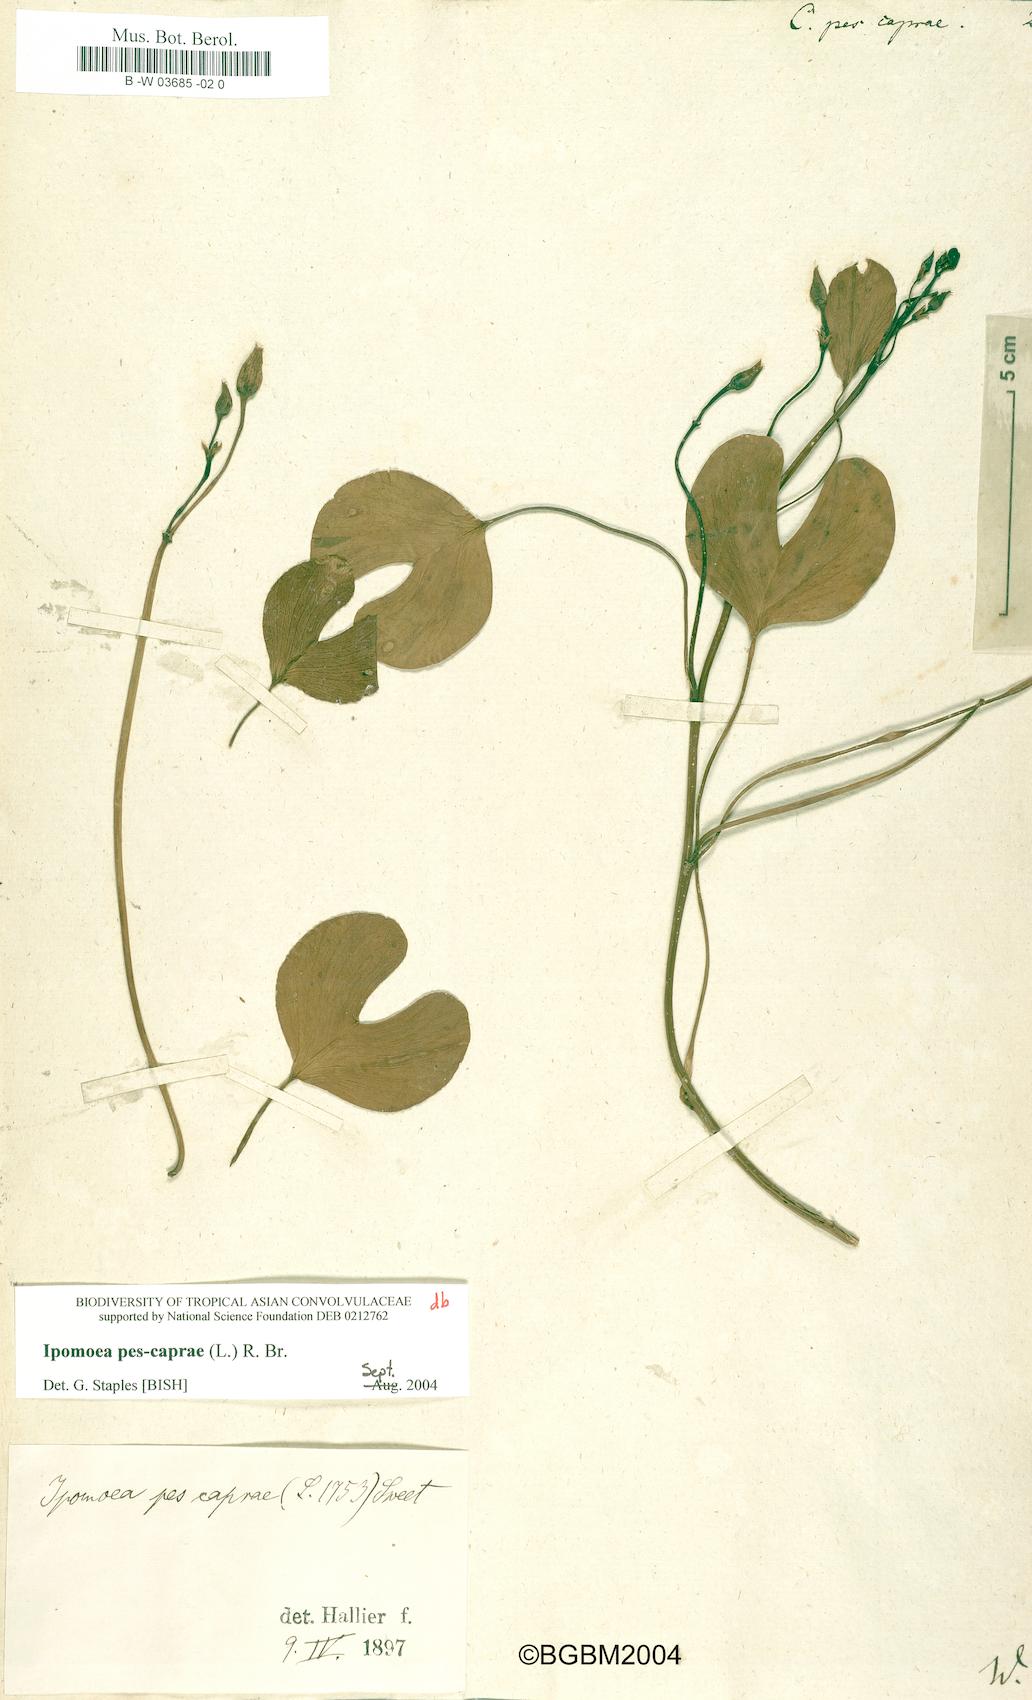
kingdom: Plantae
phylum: Tracheophyta
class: Magnoliopsida
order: Solanales
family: Convolvulaceae
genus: Ipomoea
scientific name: Ipomoea pes-caprae
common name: Beach morning glory
